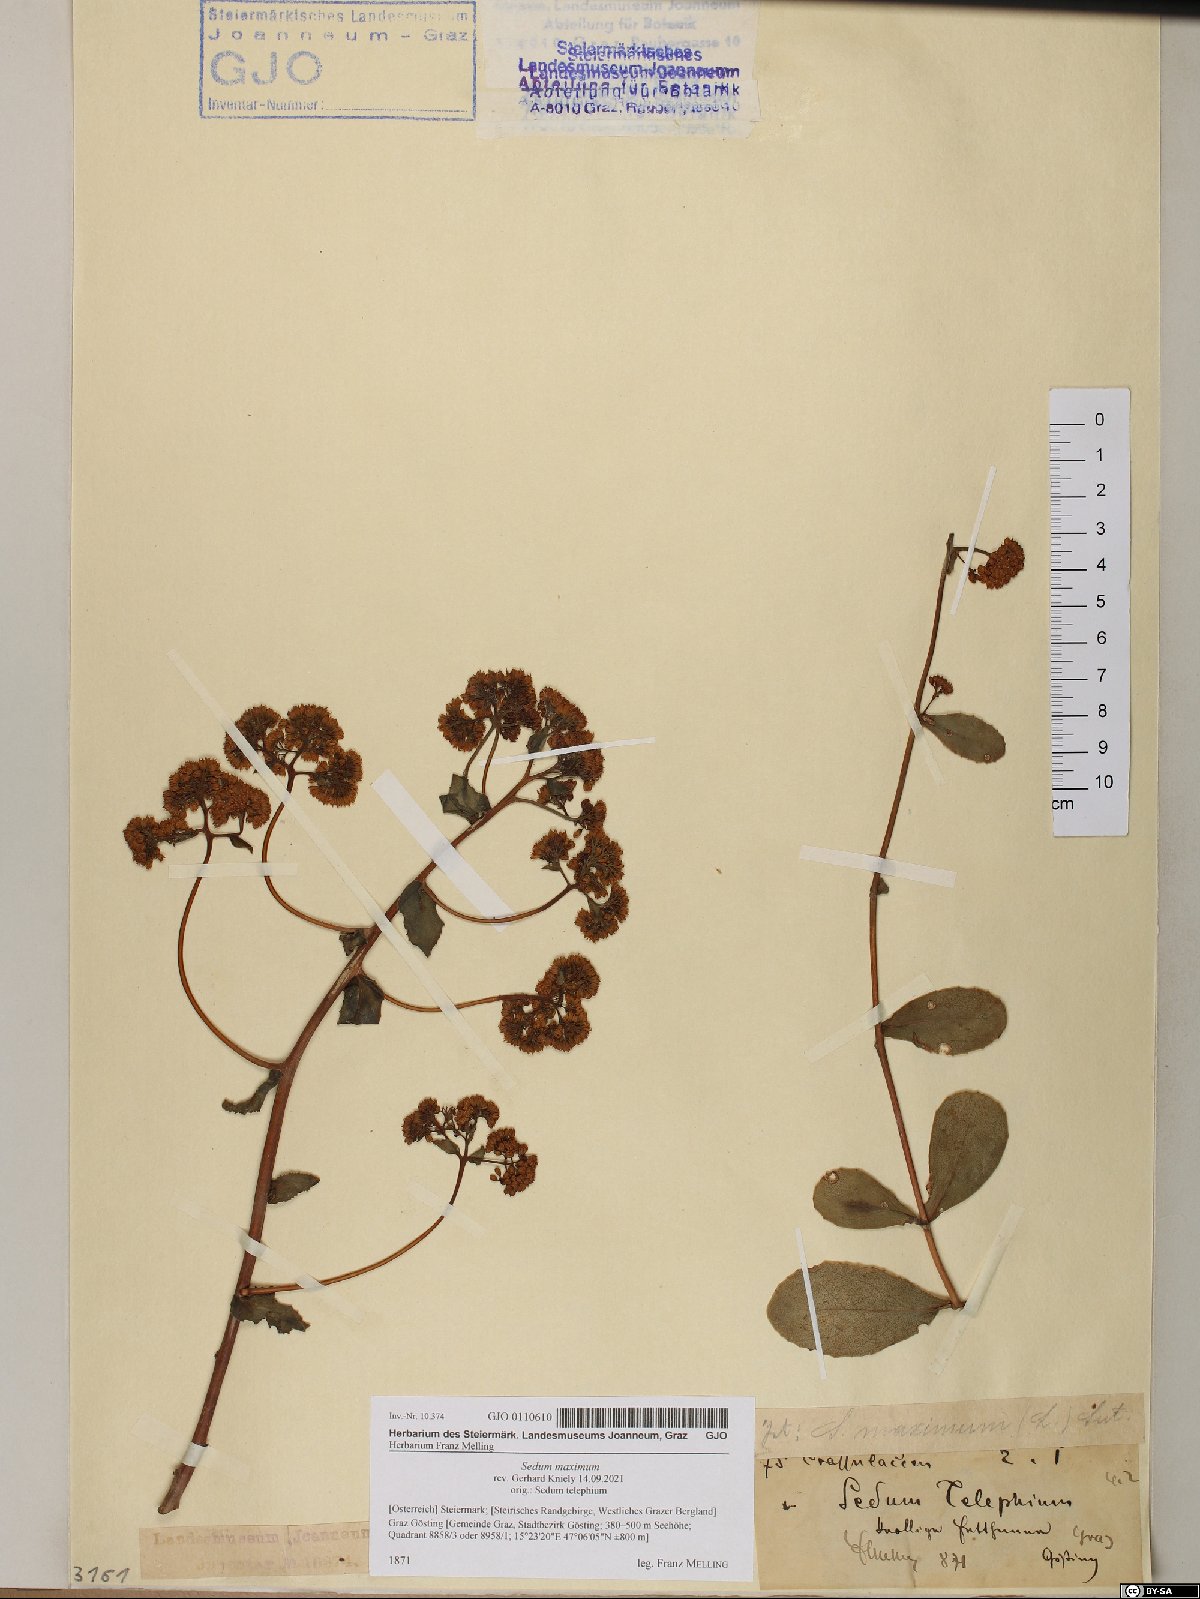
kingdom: Plantae
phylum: Tracheophyta
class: Magnoliopsida
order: Saxifragales
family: Crassulaceae
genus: Hylotelephium
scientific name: Hylotelephium maximum
